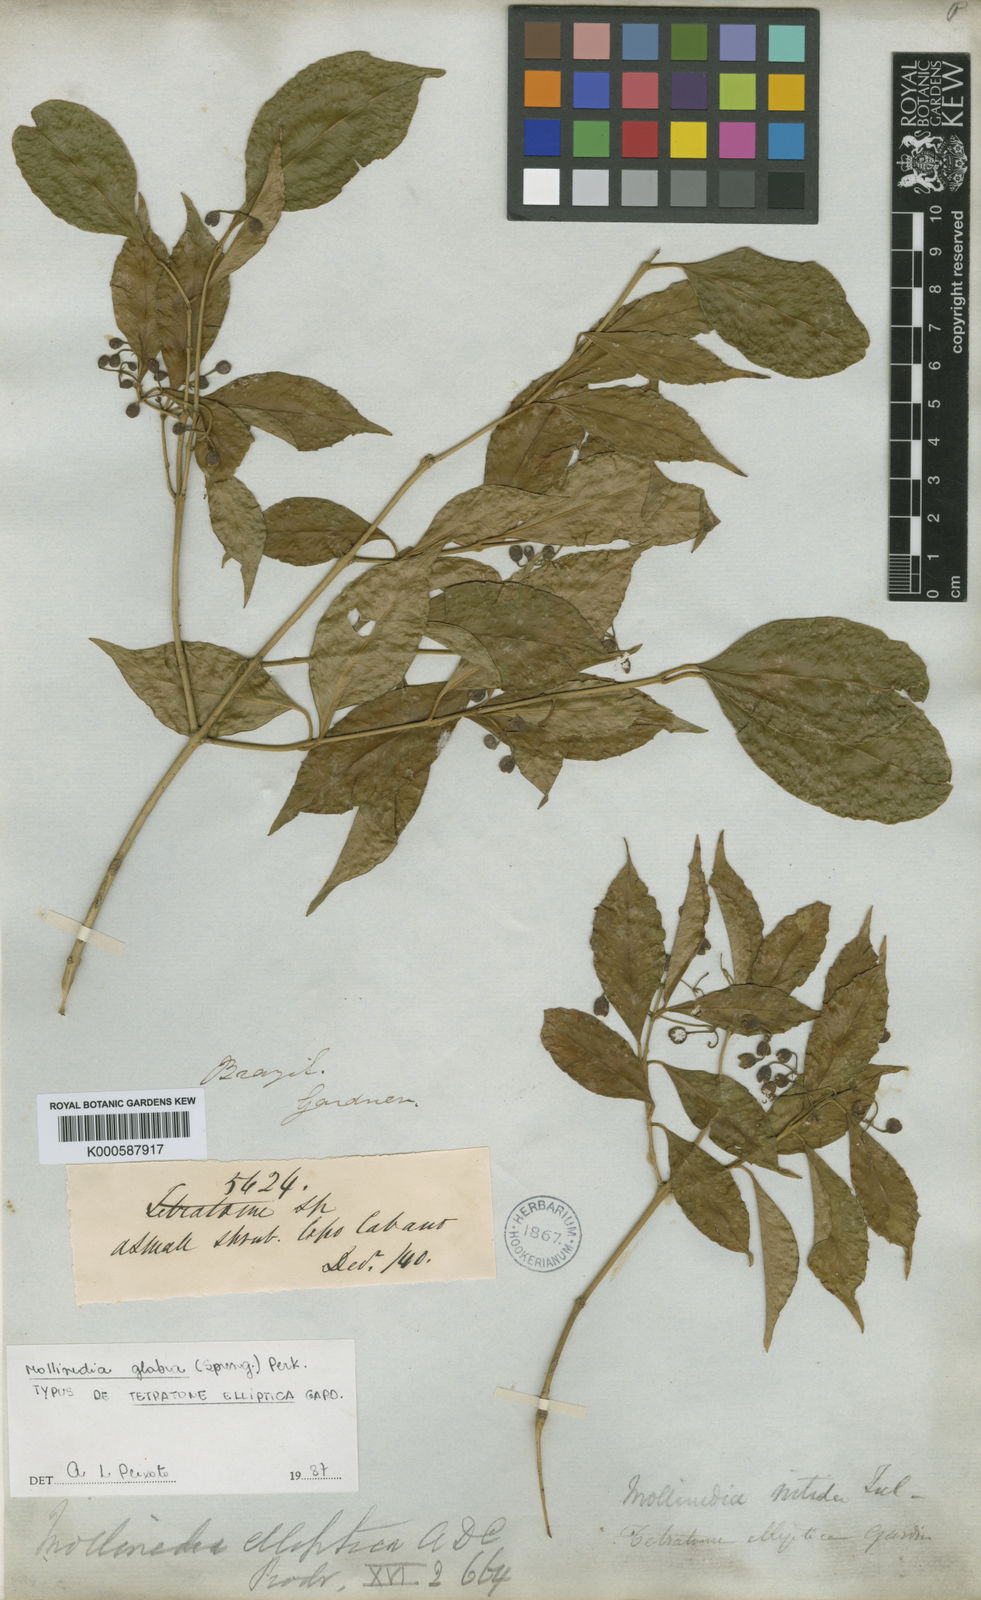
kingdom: Plantae
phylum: Tracheophyta
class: Magnoliopsida
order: Laurales
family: Monimiaceae
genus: Mollinedia
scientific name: Mollinedia elliptica
